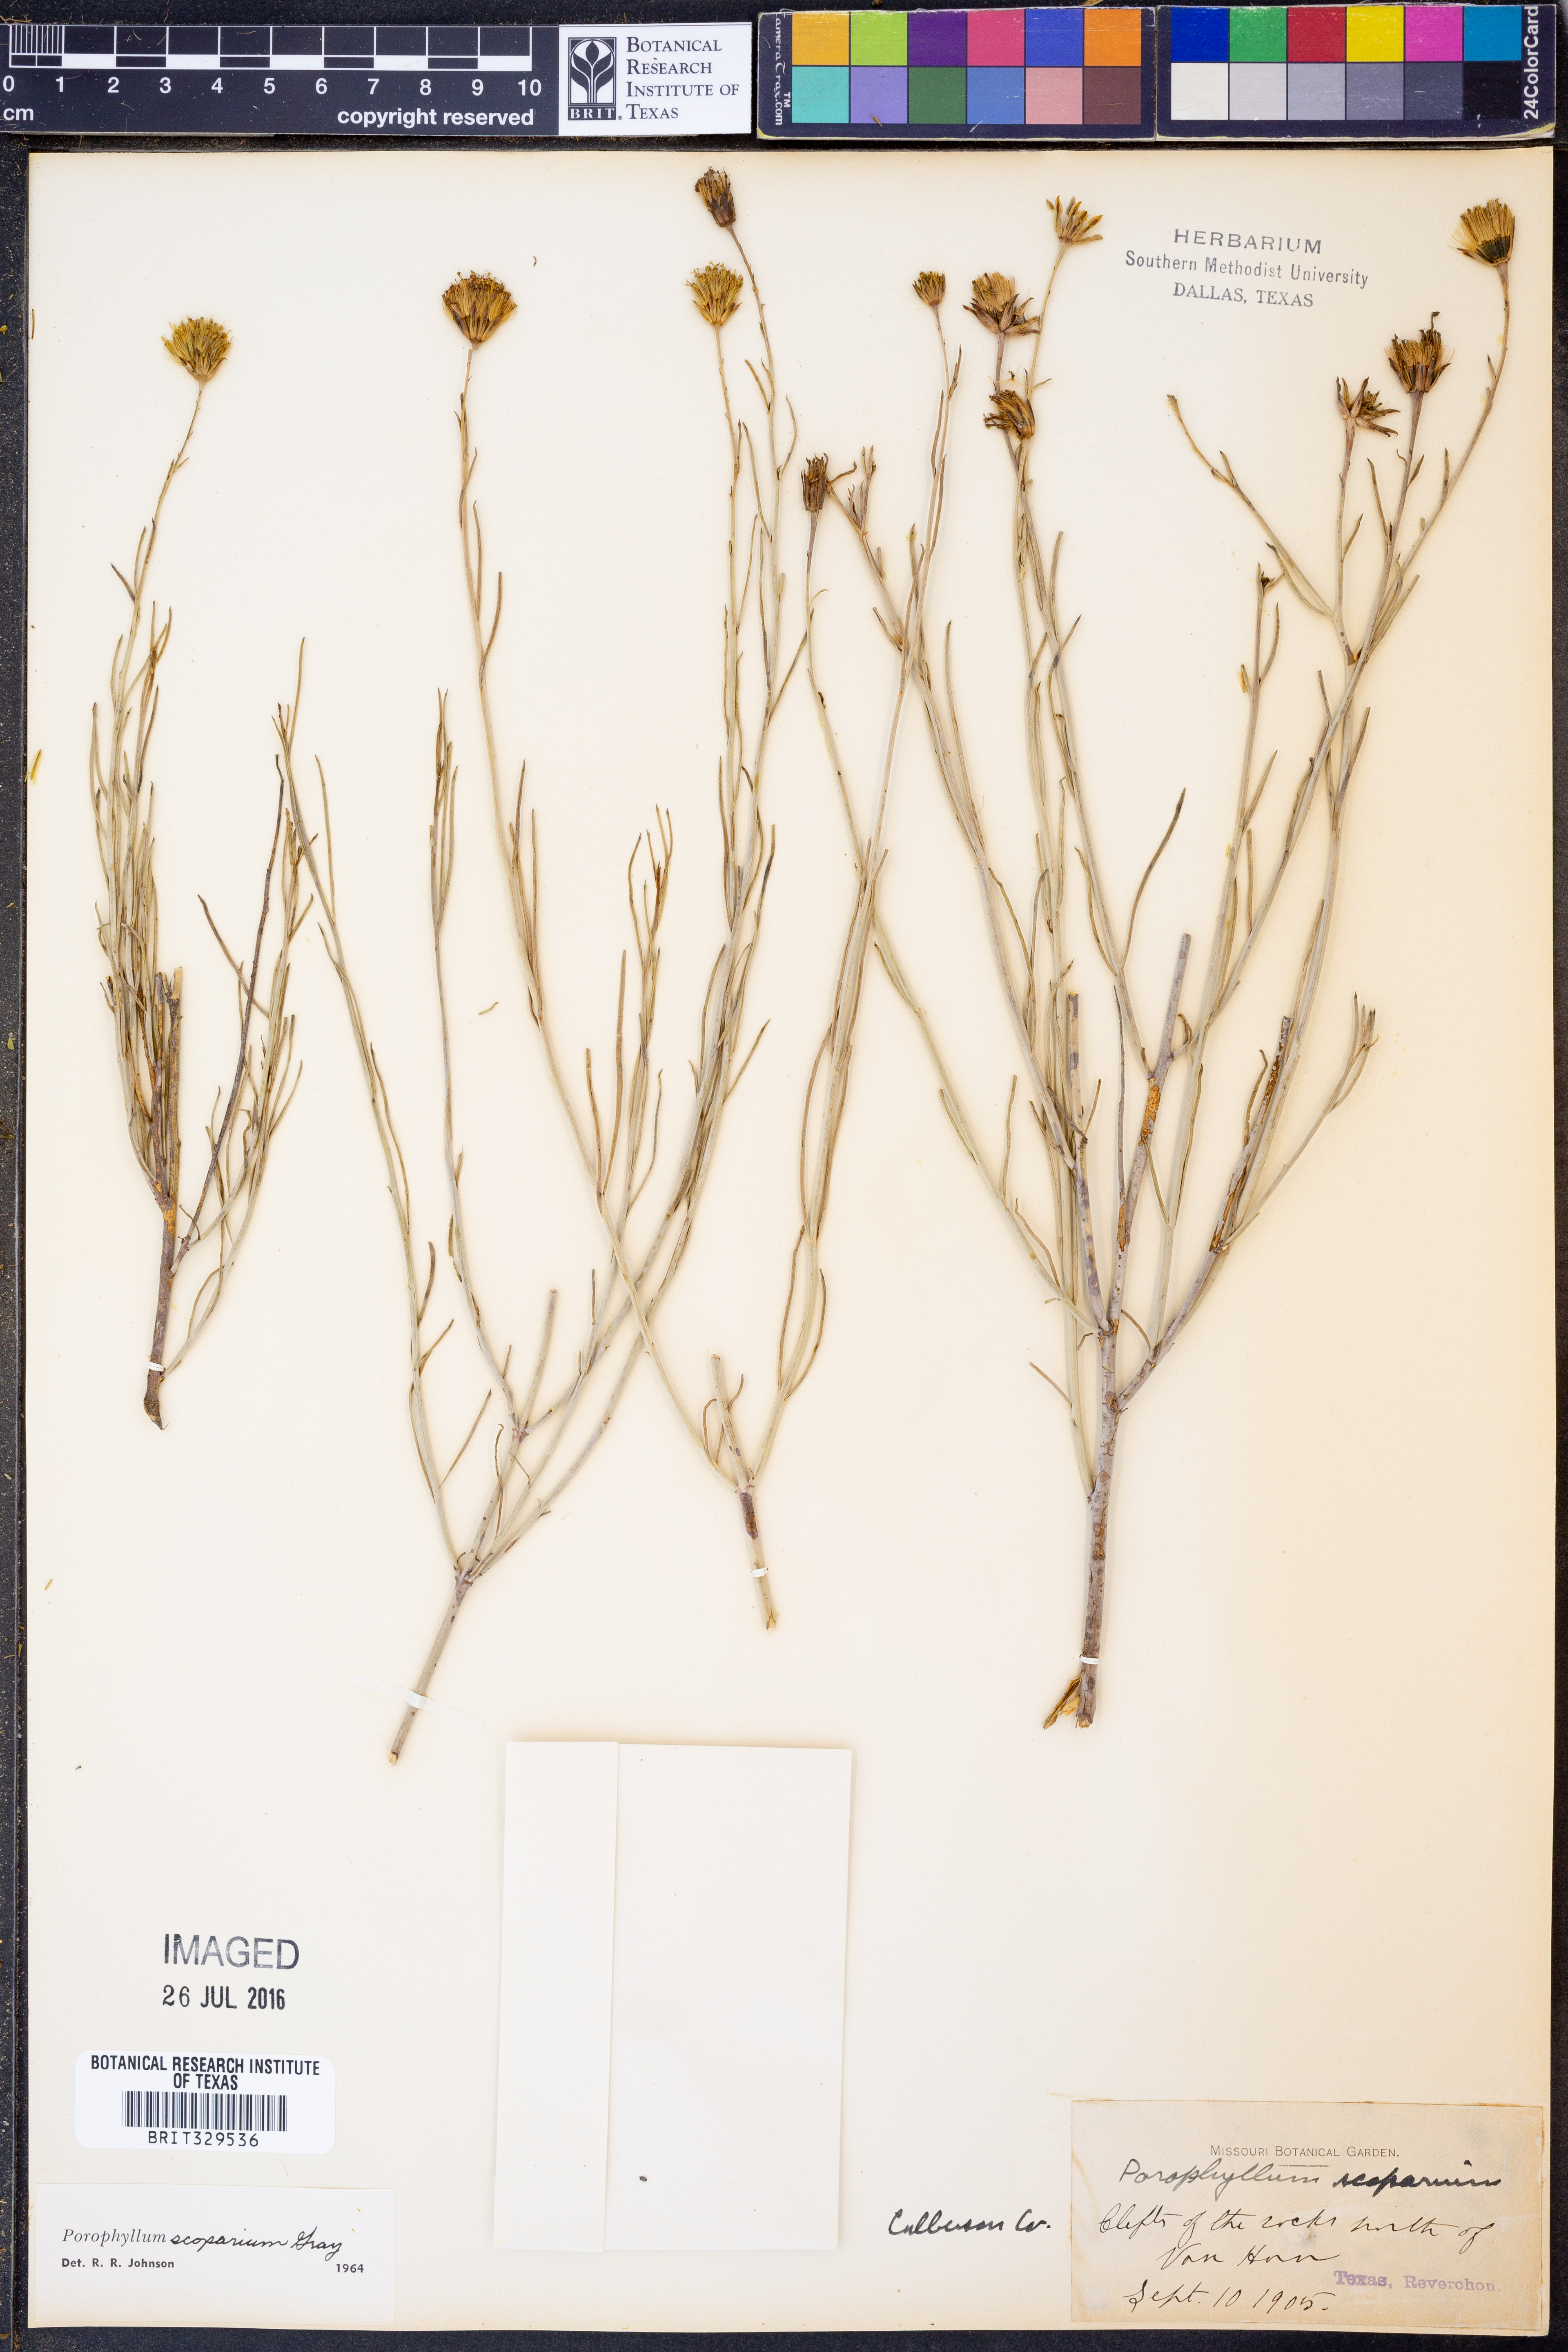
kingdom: Plantae
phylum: Tracheophyta
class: Magnoliopsida
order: Asterales
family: Asteraceae
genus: Porophyllum
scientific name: Porophyllum scoparium
